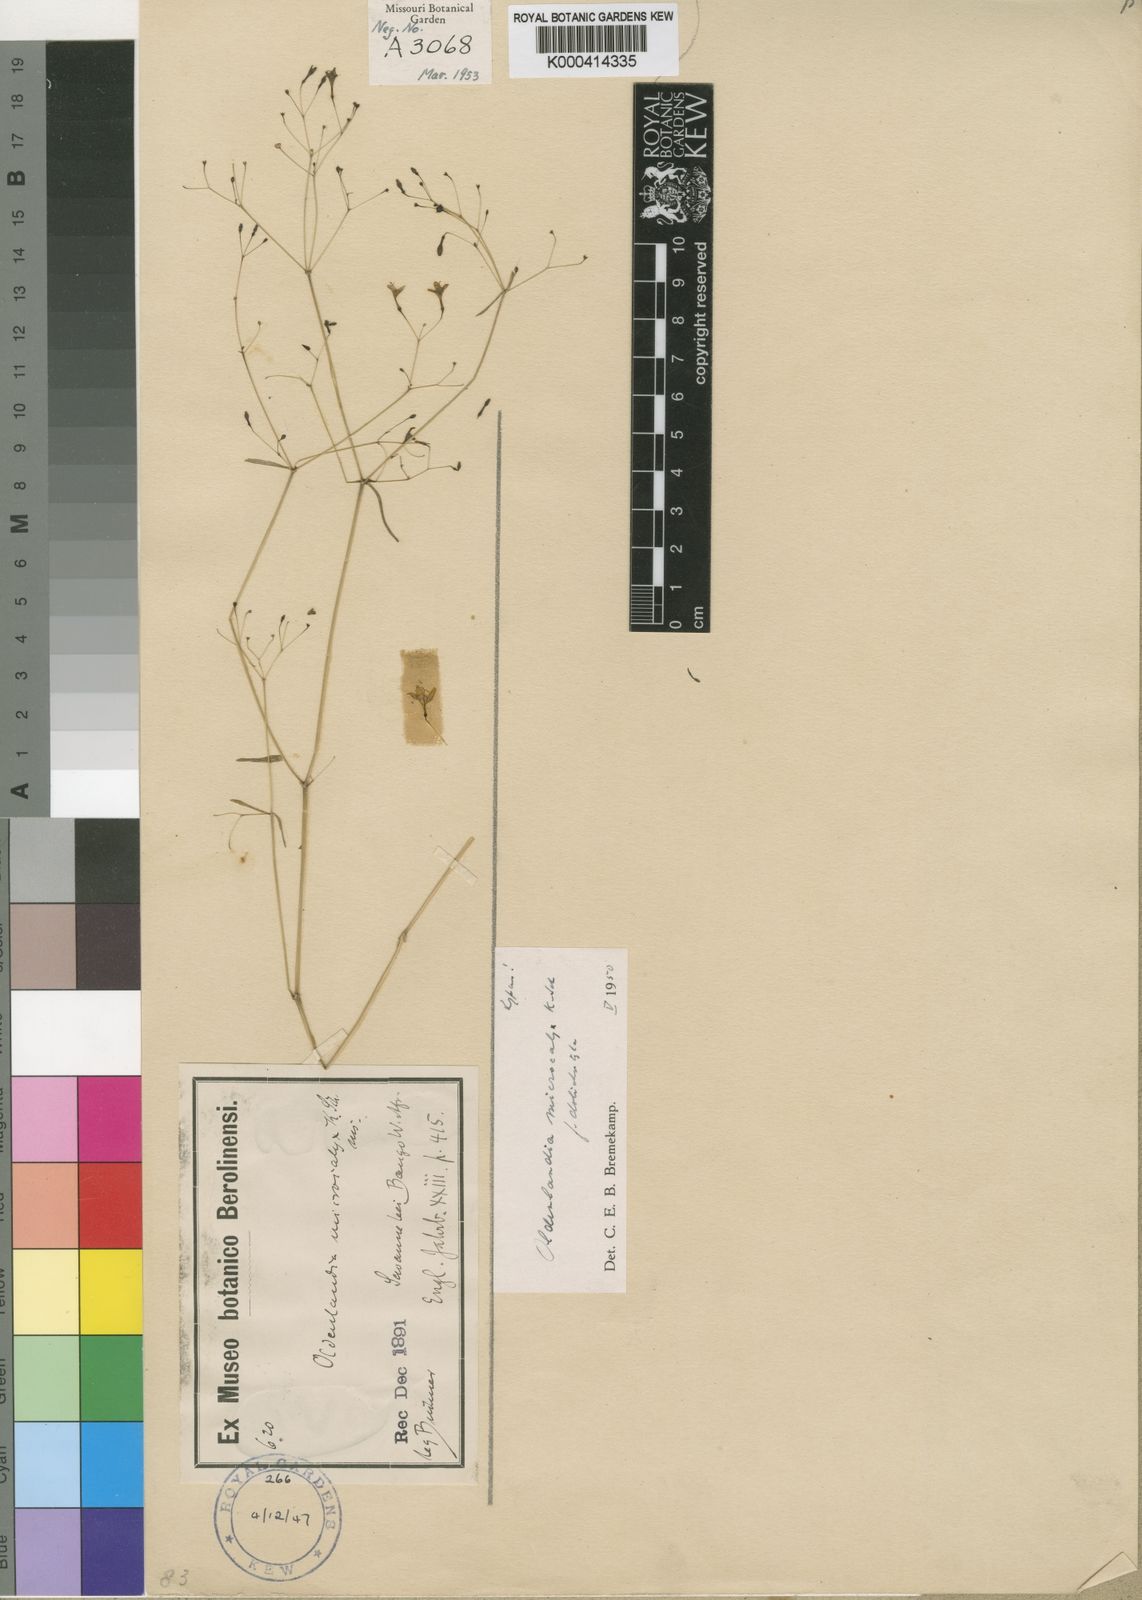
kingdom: Plantae
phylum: Tracheophyta
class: Magnoliopsida
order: Gentianales
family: Rubiaceae
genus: Oldenlandia
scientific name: Oldenlandia microcalyx
